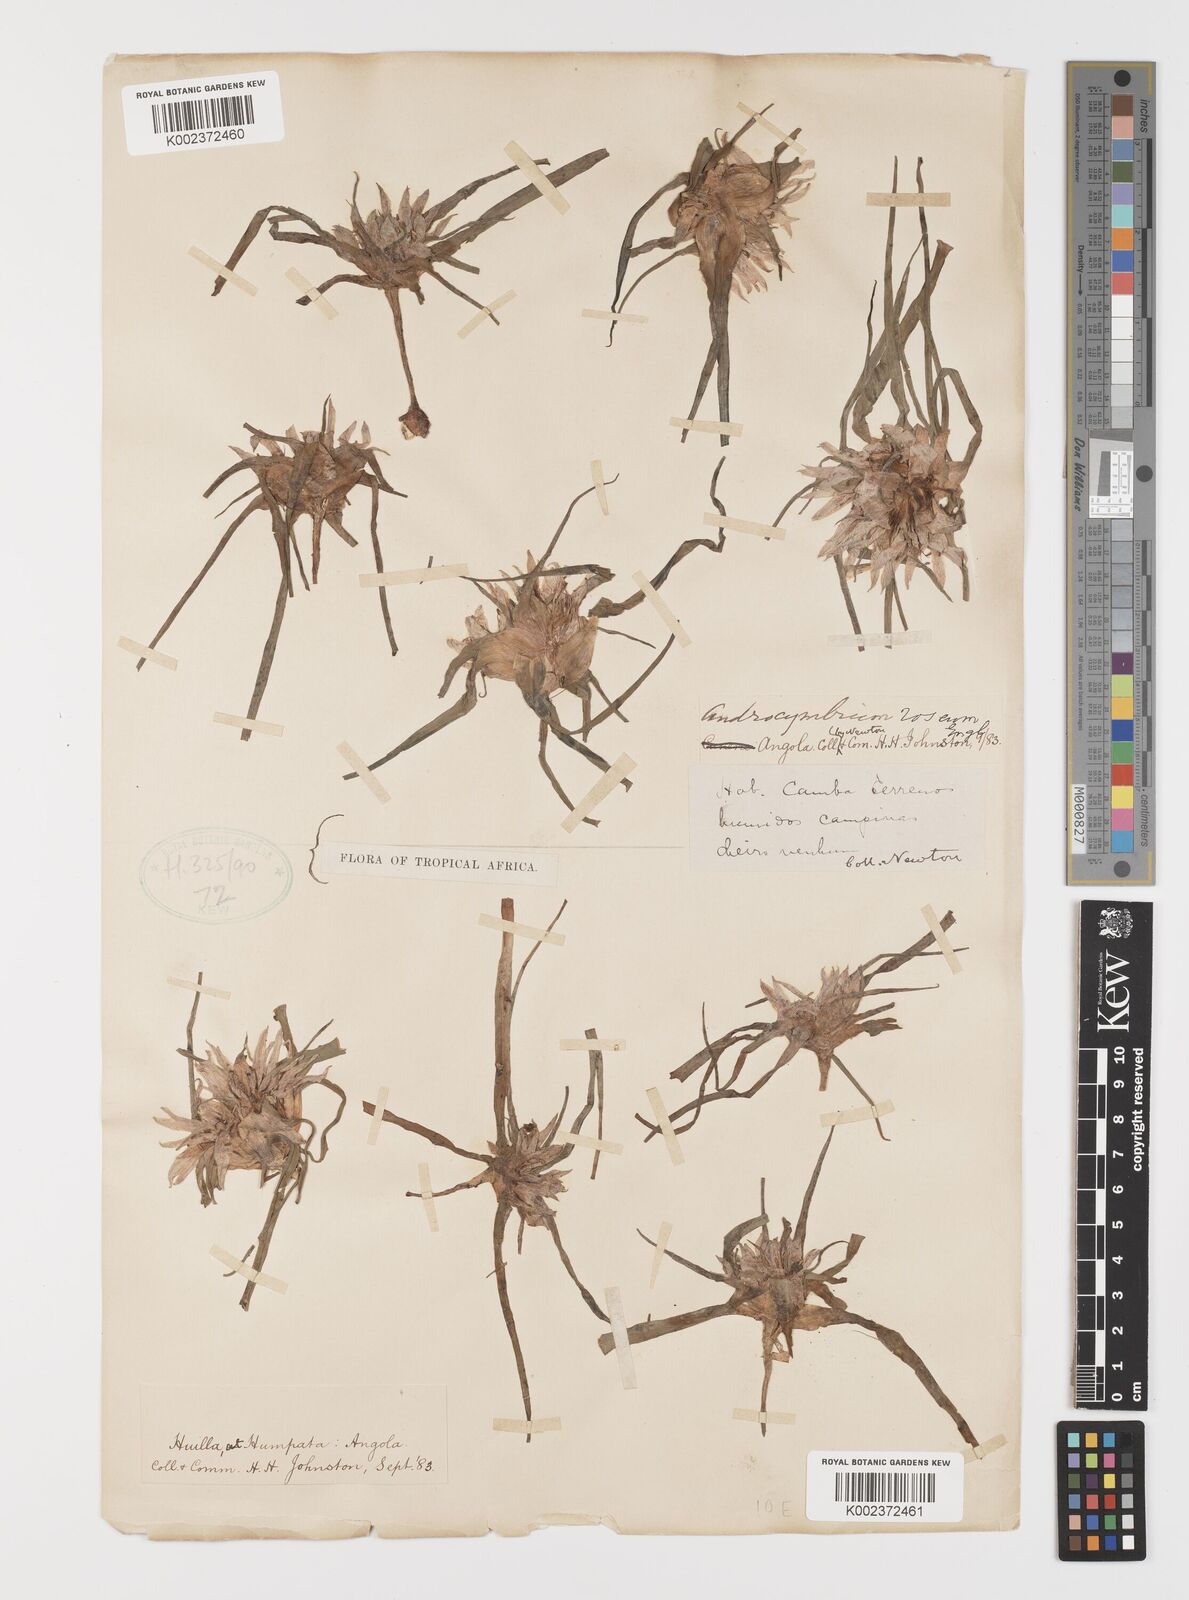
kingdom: Plantae
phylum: Tracheophyta
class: Liliopsida
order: Liliales
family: Colchicaceae
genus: Colchicum
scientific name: Colchicum roseum
